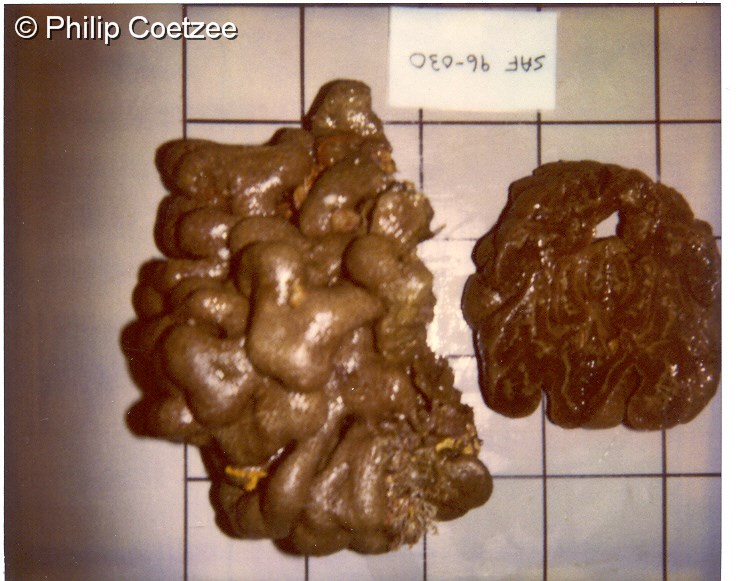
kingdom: Animalia
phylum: Chordata
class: Ascidiacea
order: Aplousobranchia
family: Polyclinidae
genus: Aplidium
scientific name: Aplidium
